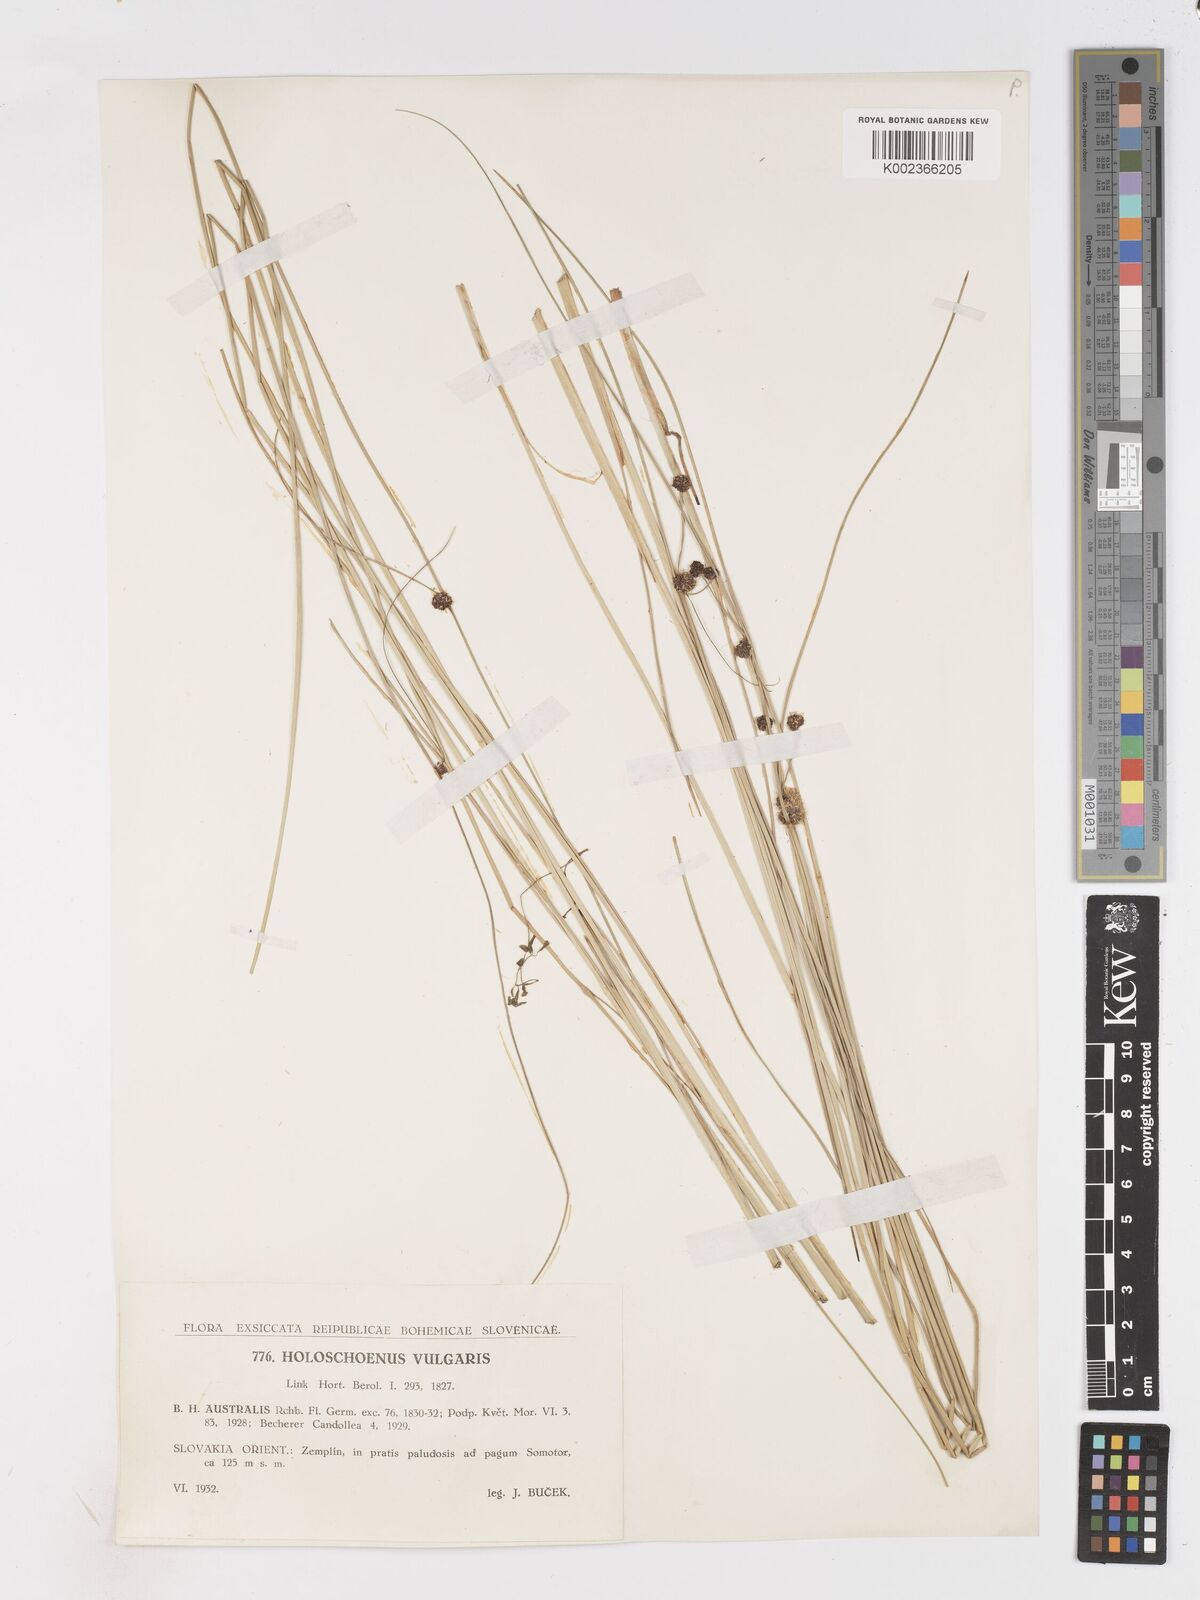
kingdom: Plantae
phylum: Tracheophyta
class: Liliopsida
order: Poales
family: Cyperaceae
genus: Scirpoides
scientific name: Scirpoides holoschoenus
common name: Round-headed club-rush
